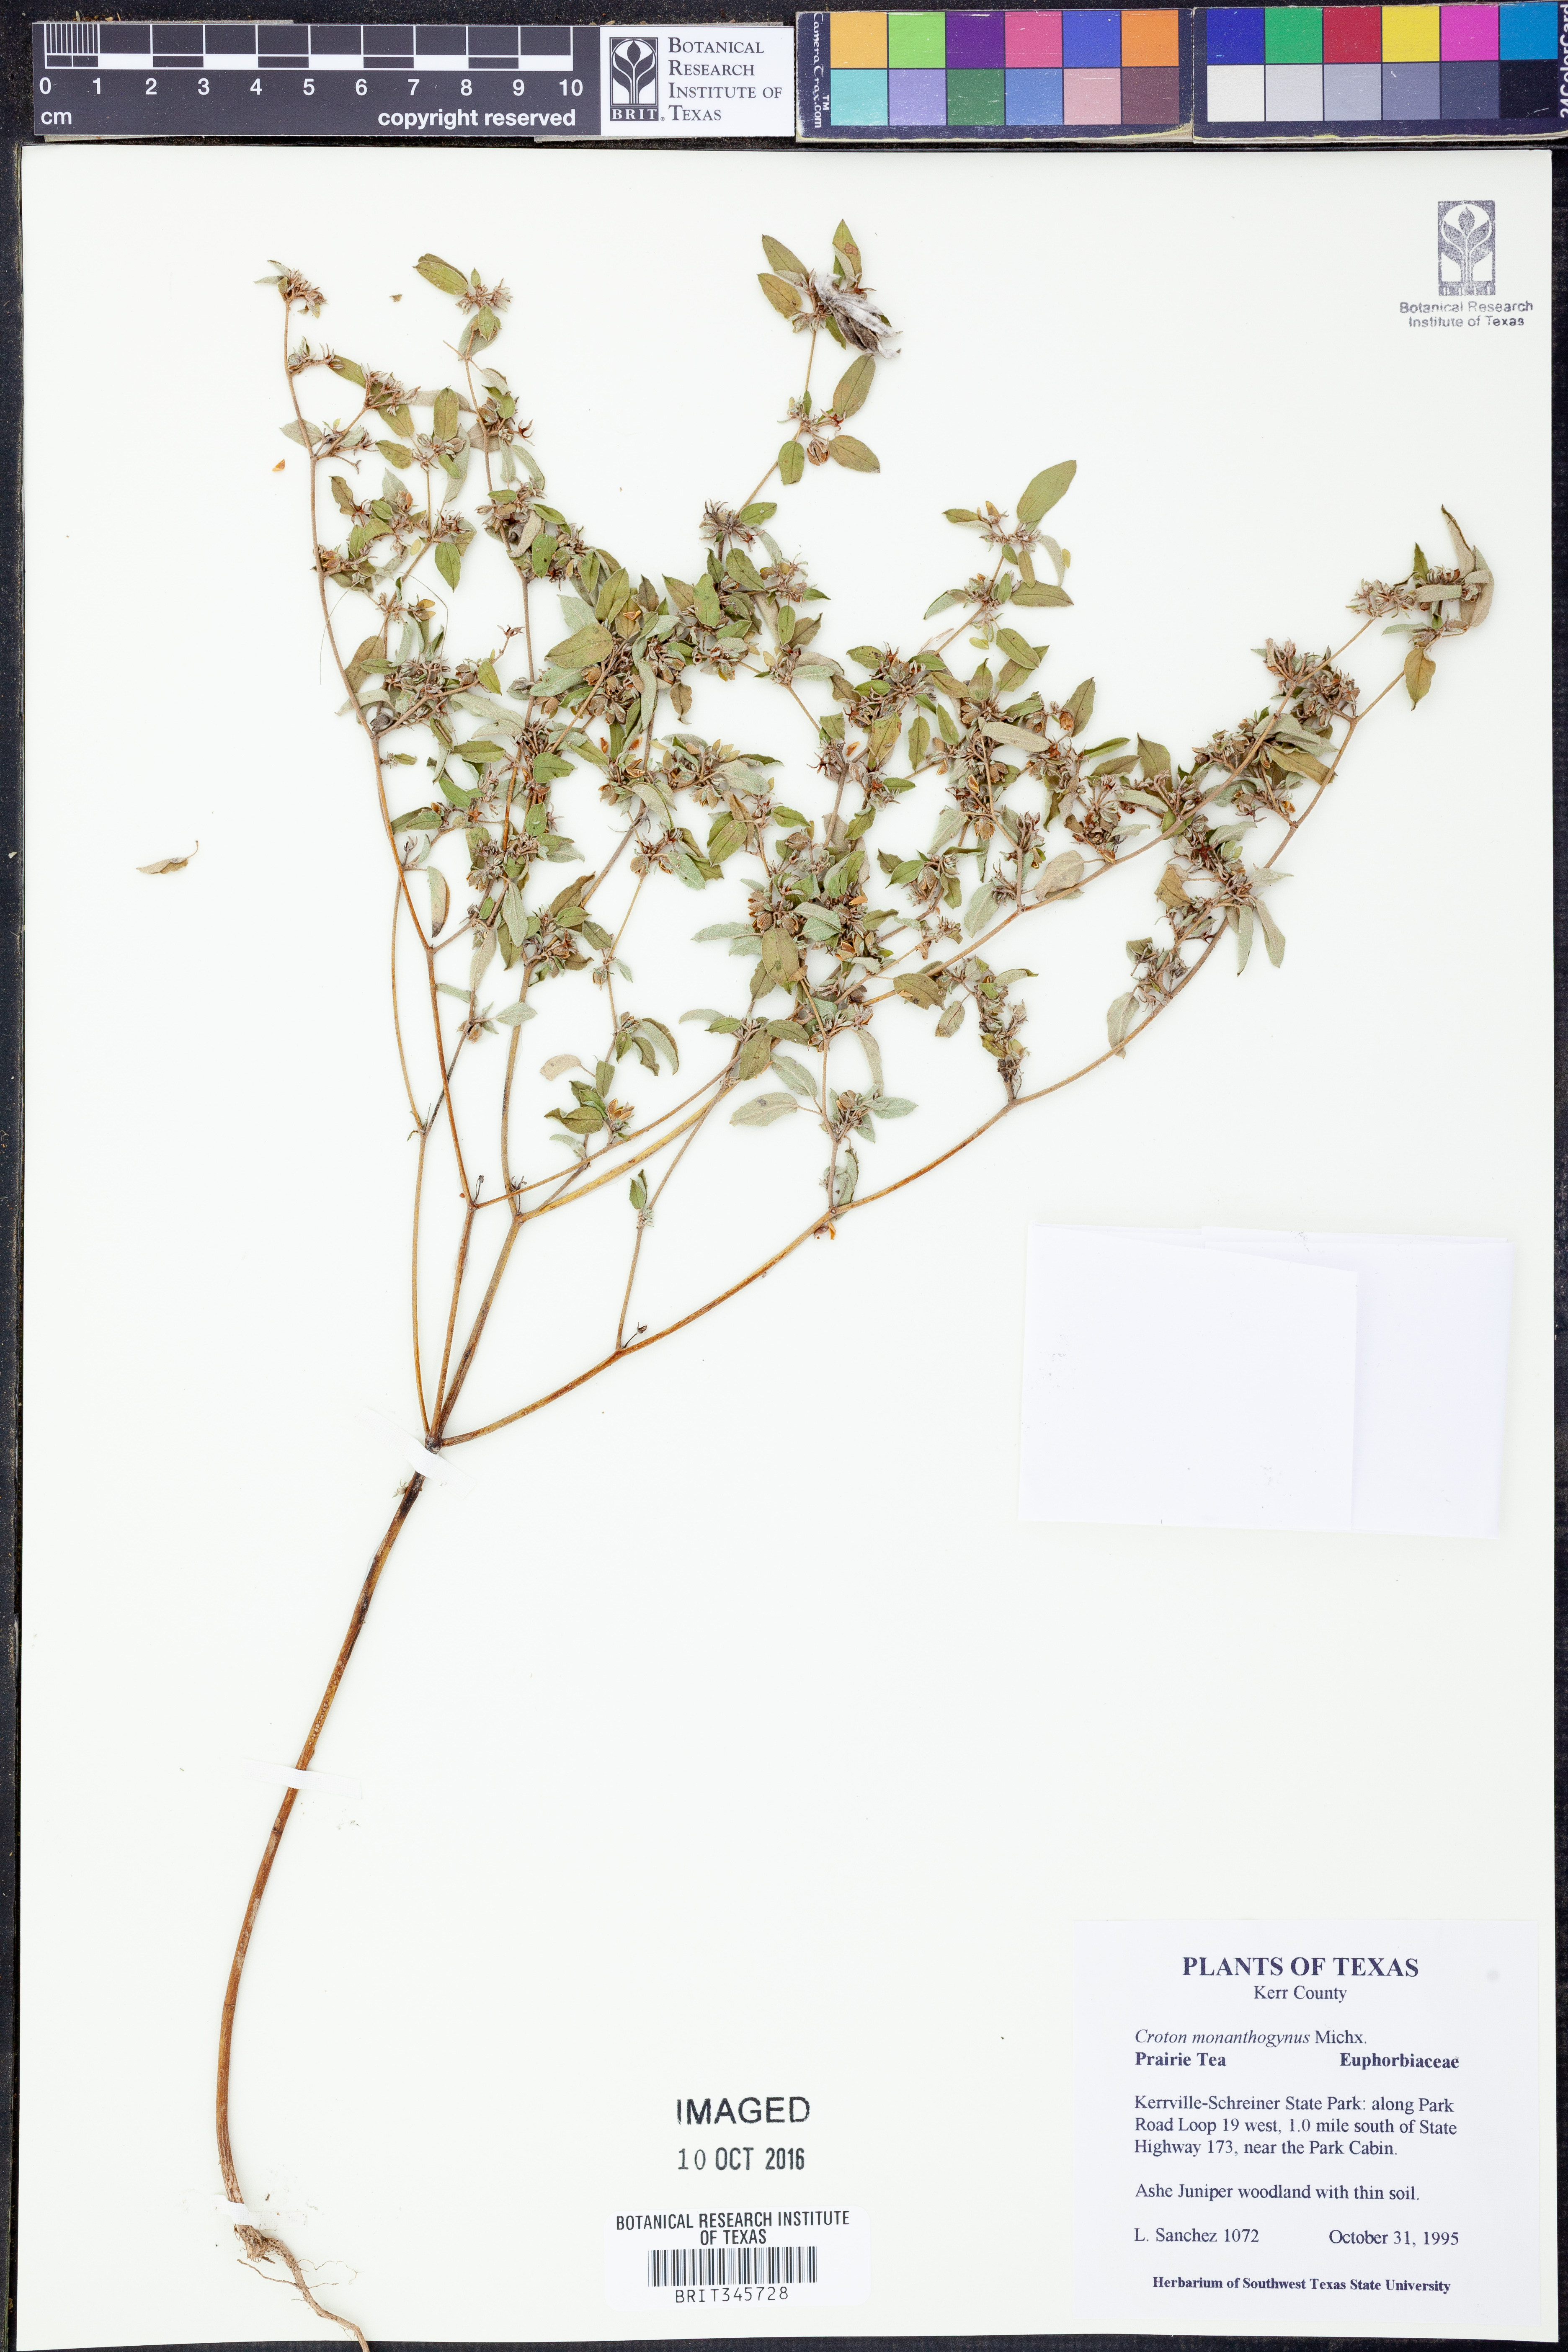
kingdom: Plantae
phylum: Tracheophyta
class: Magnoliopsida
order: Malpighiales
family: Euphorbiaceae
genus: Croton
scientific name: Croton monanthogynus
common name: One-seed croton
